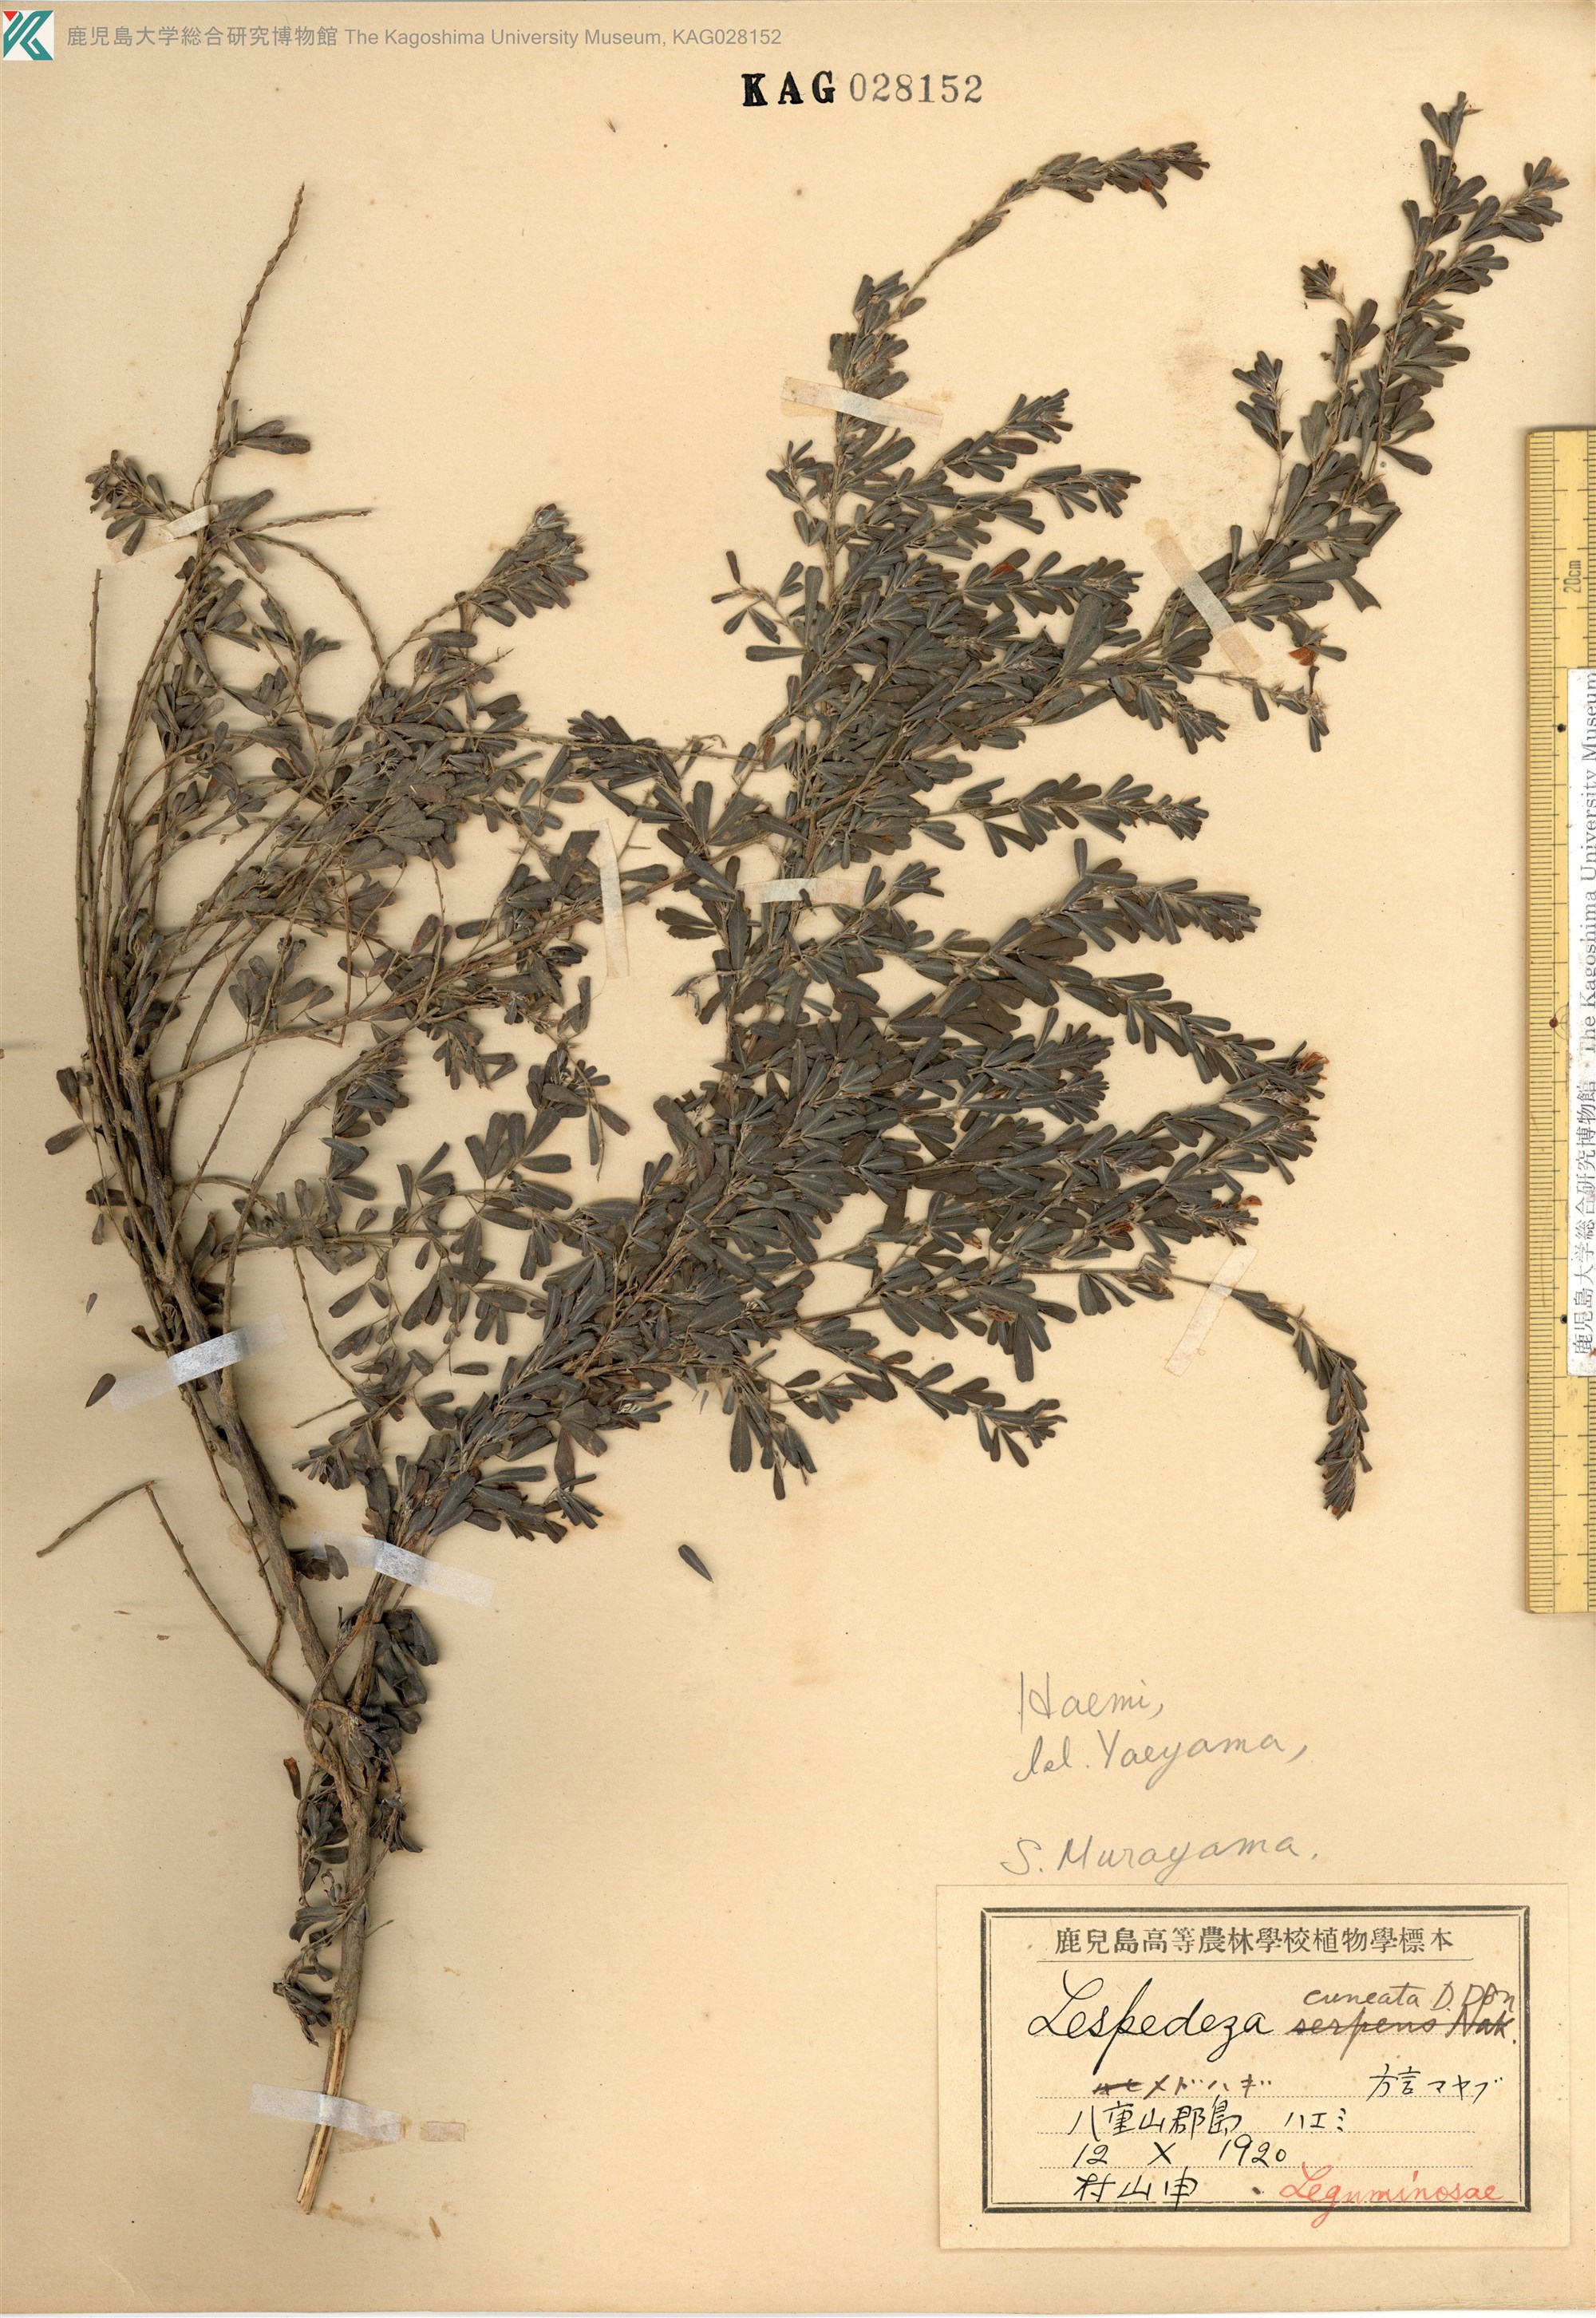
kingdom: Plantae
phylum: Tracheophyta
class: Magnoliopsida
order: Fabales
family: Fabaceae
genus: Lespedeza
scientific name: Lespedeza cuneata
